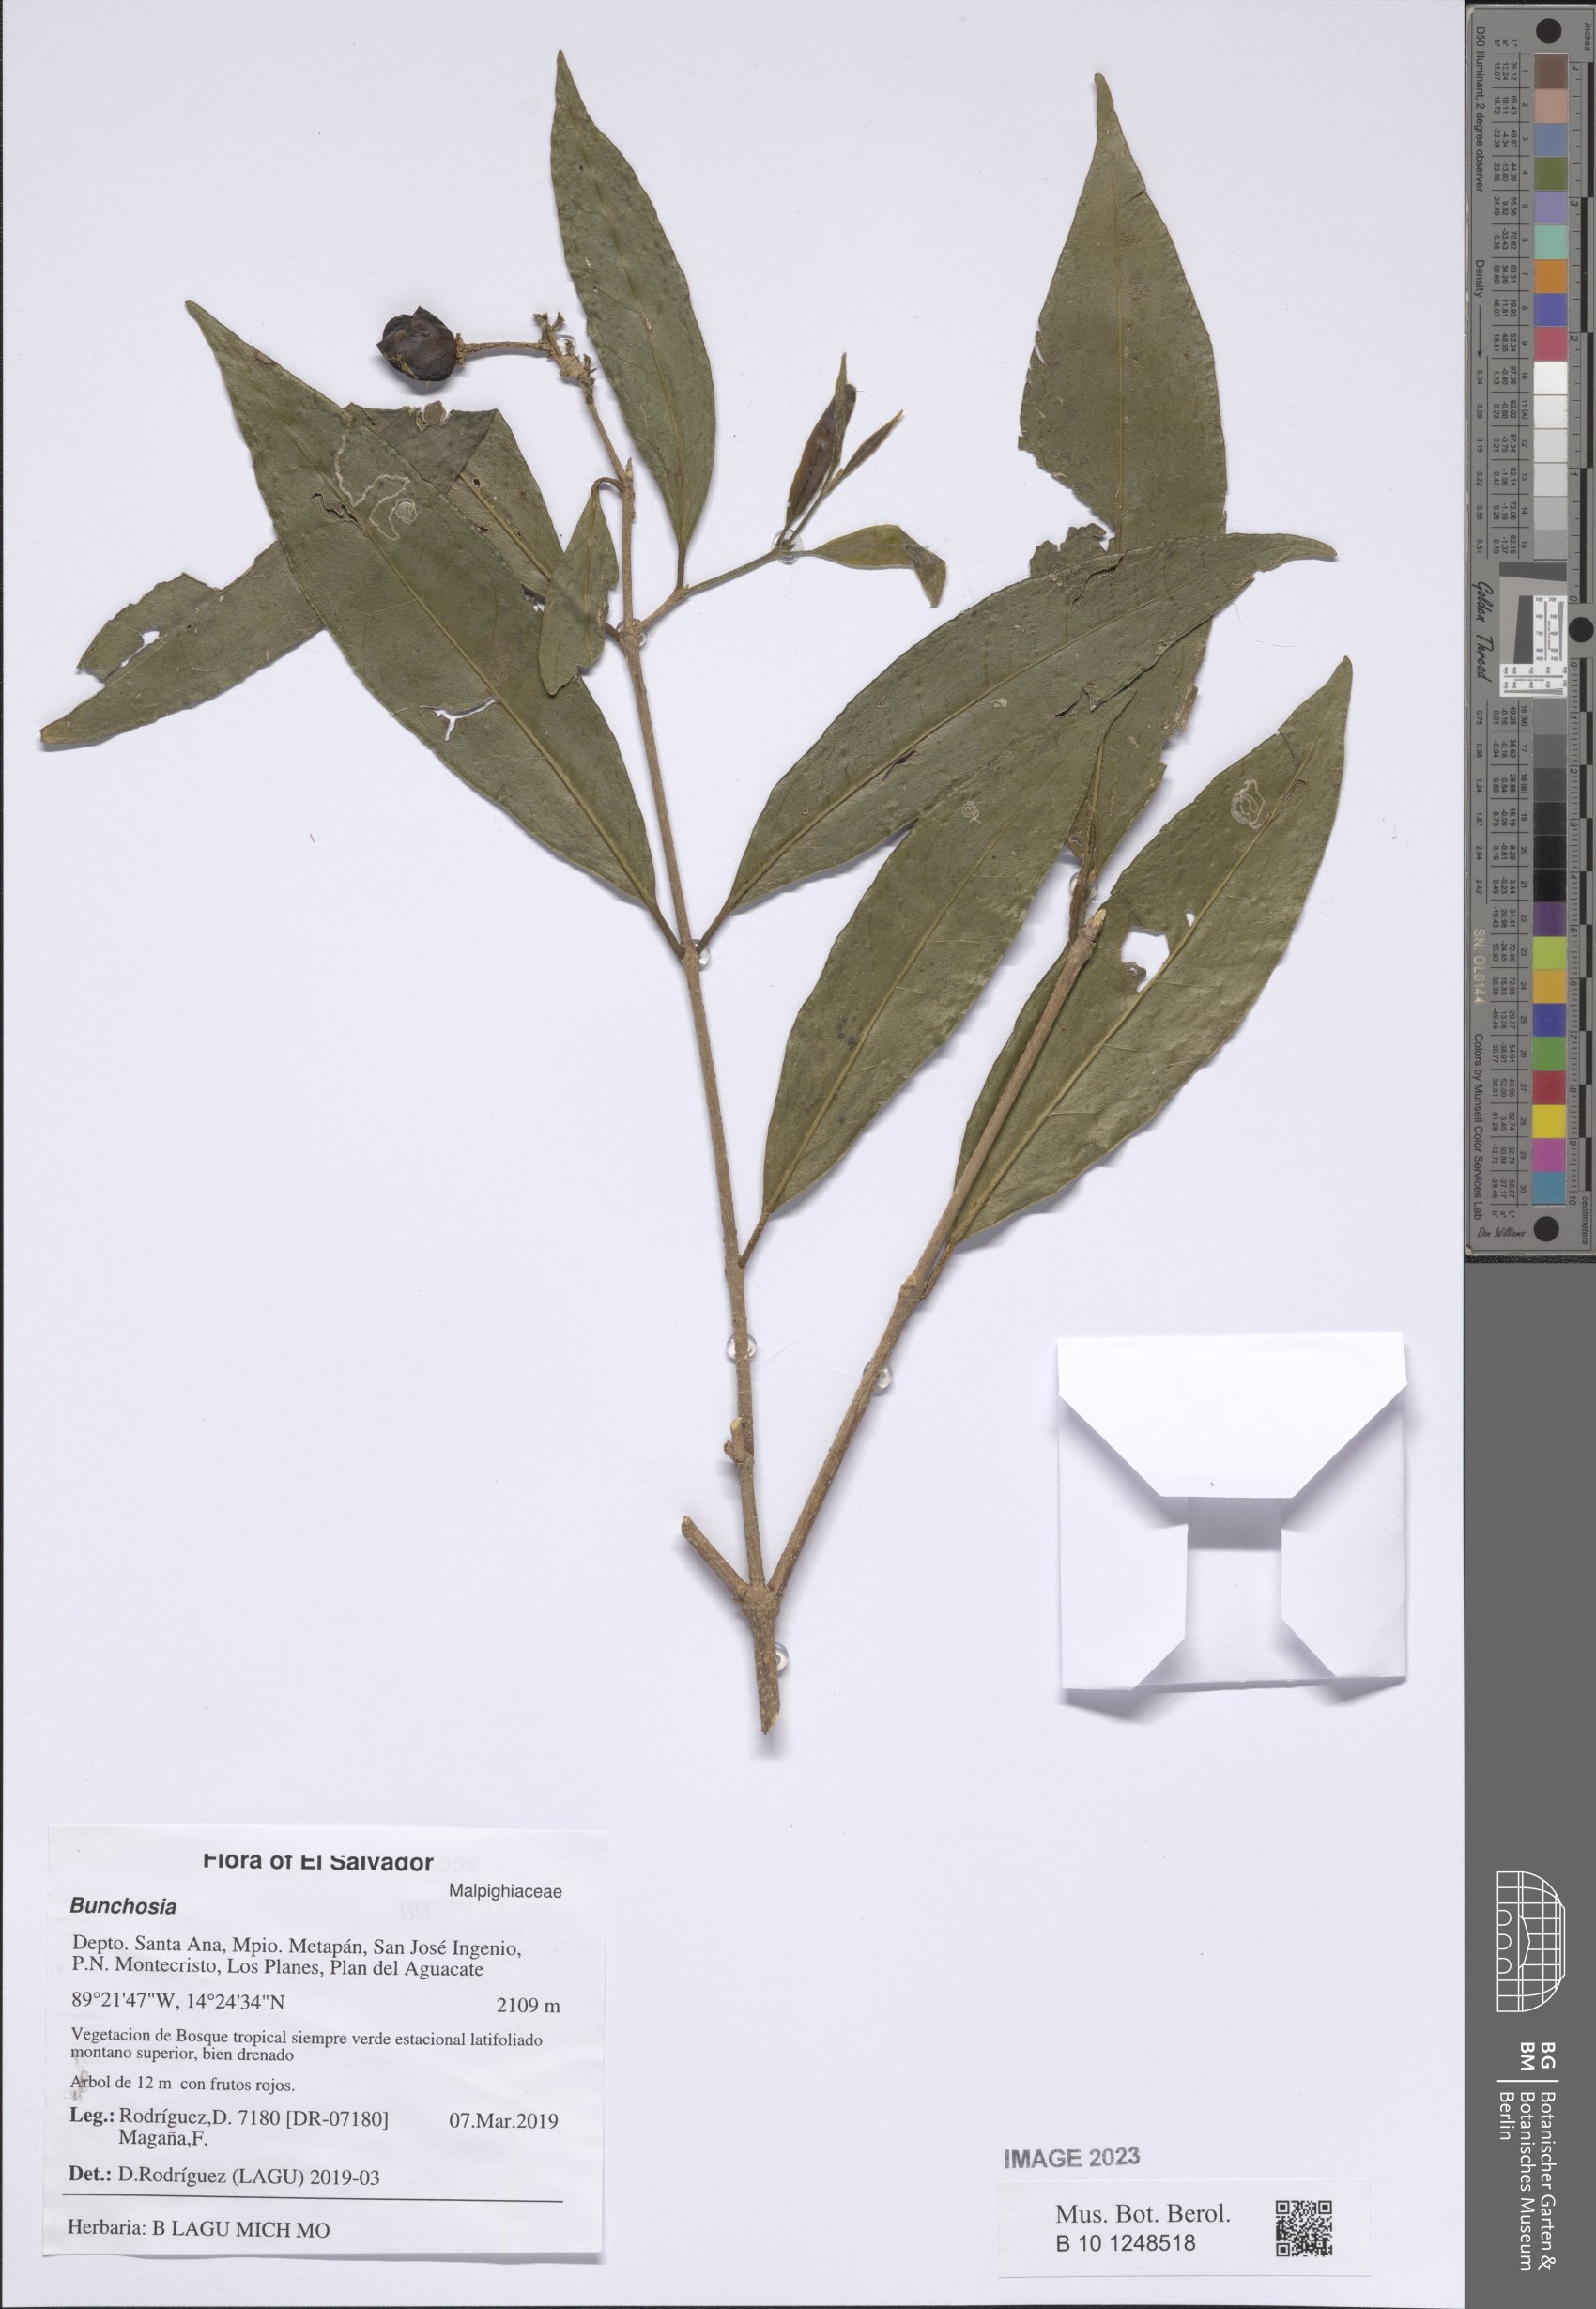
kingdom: Plantae
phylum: Tracheophyta
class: Magnoliopsida
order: Malpighiales
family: Malpighiaceae
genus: Bunchosia
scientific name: Bunchosia
